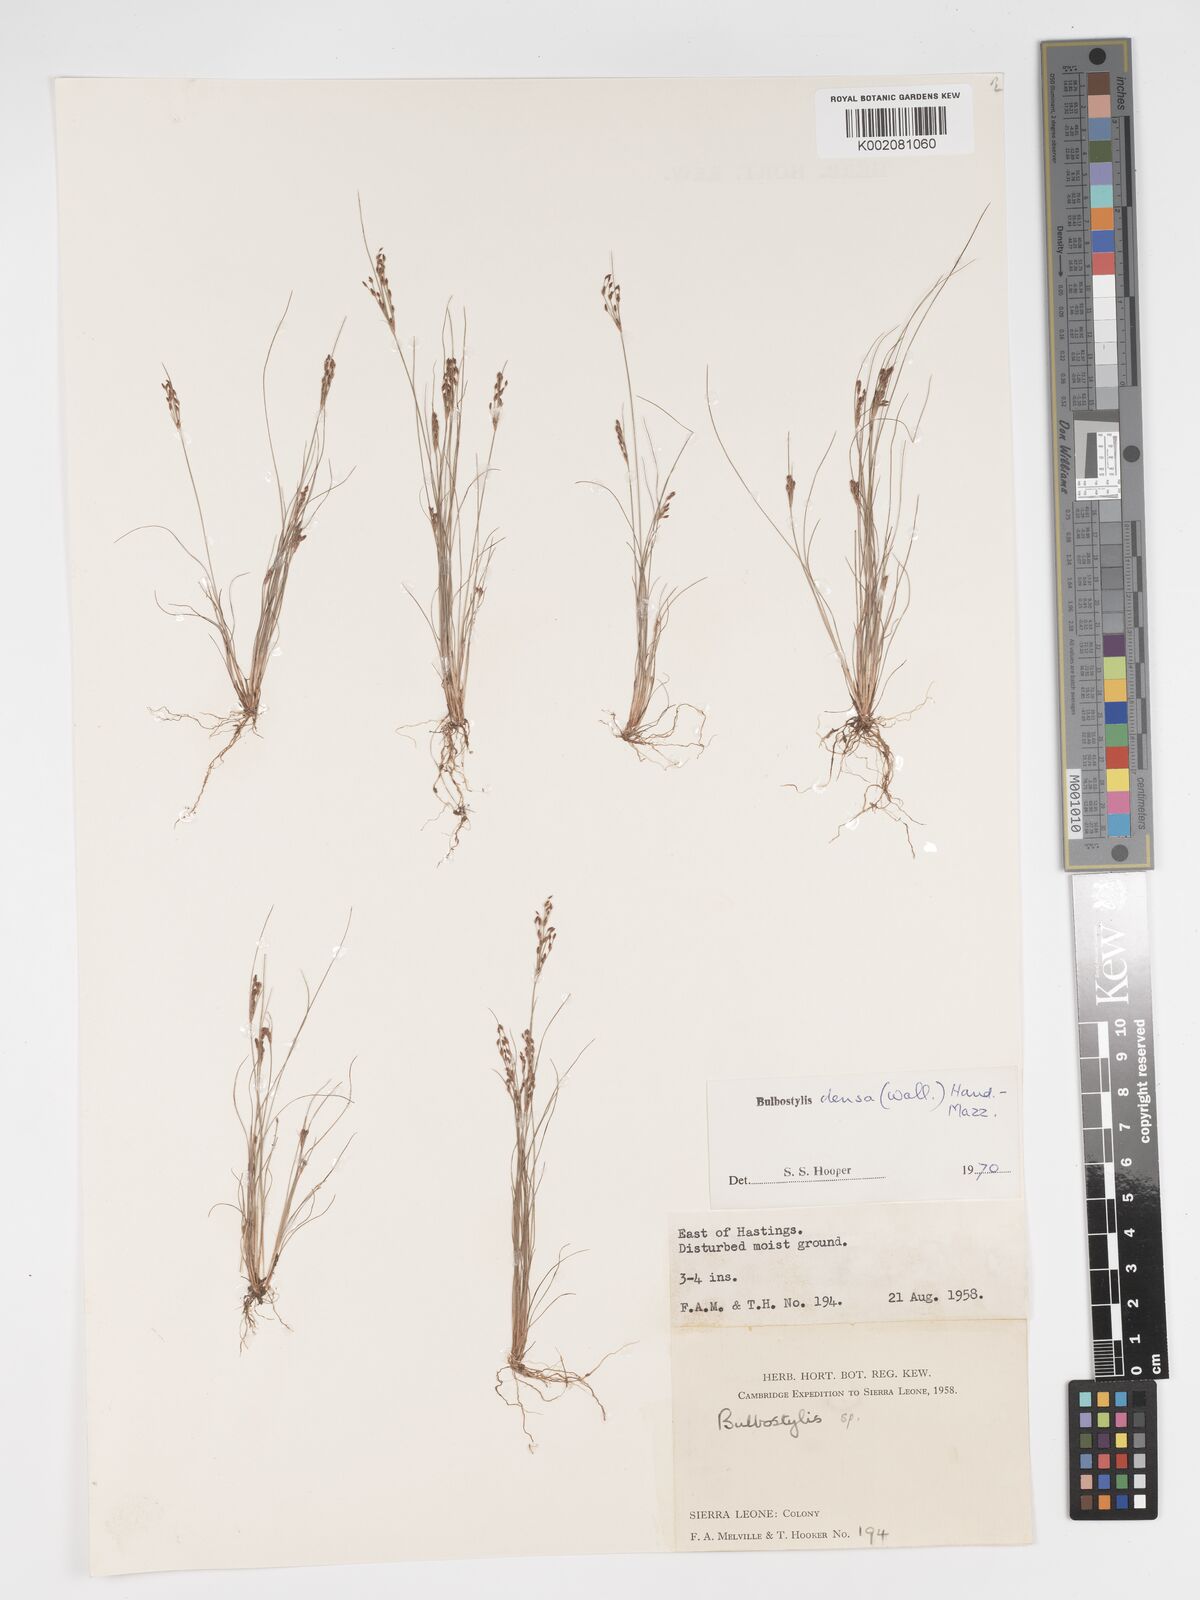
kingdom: Plantae
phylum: Tracheophyta
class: Liliopsida
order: Poales
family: Cyperaceae
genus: Bulbostylis
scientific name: Bulbostylis densa
